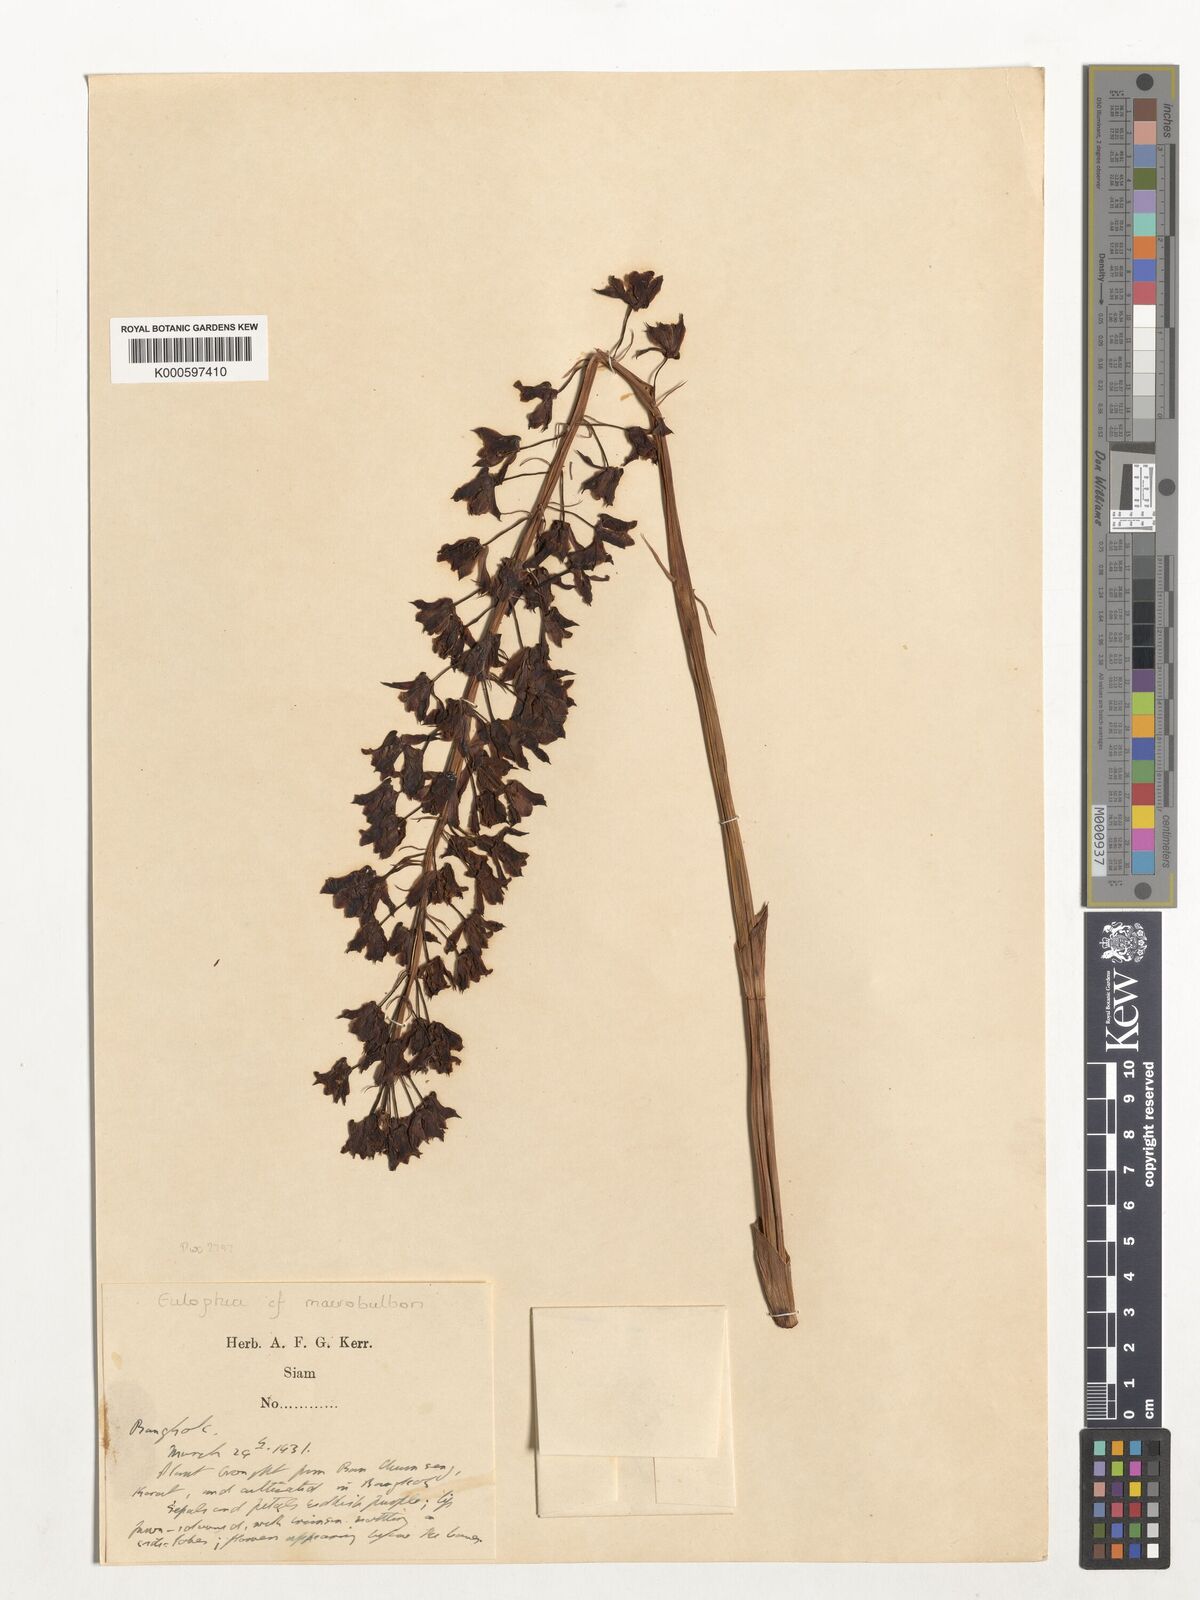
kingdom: Plantae
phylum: Tracheophyta
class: Liliopsida
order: Asparagales
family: Orchidaceae
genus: Eulophia
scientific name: Eulophia macrobulbon
